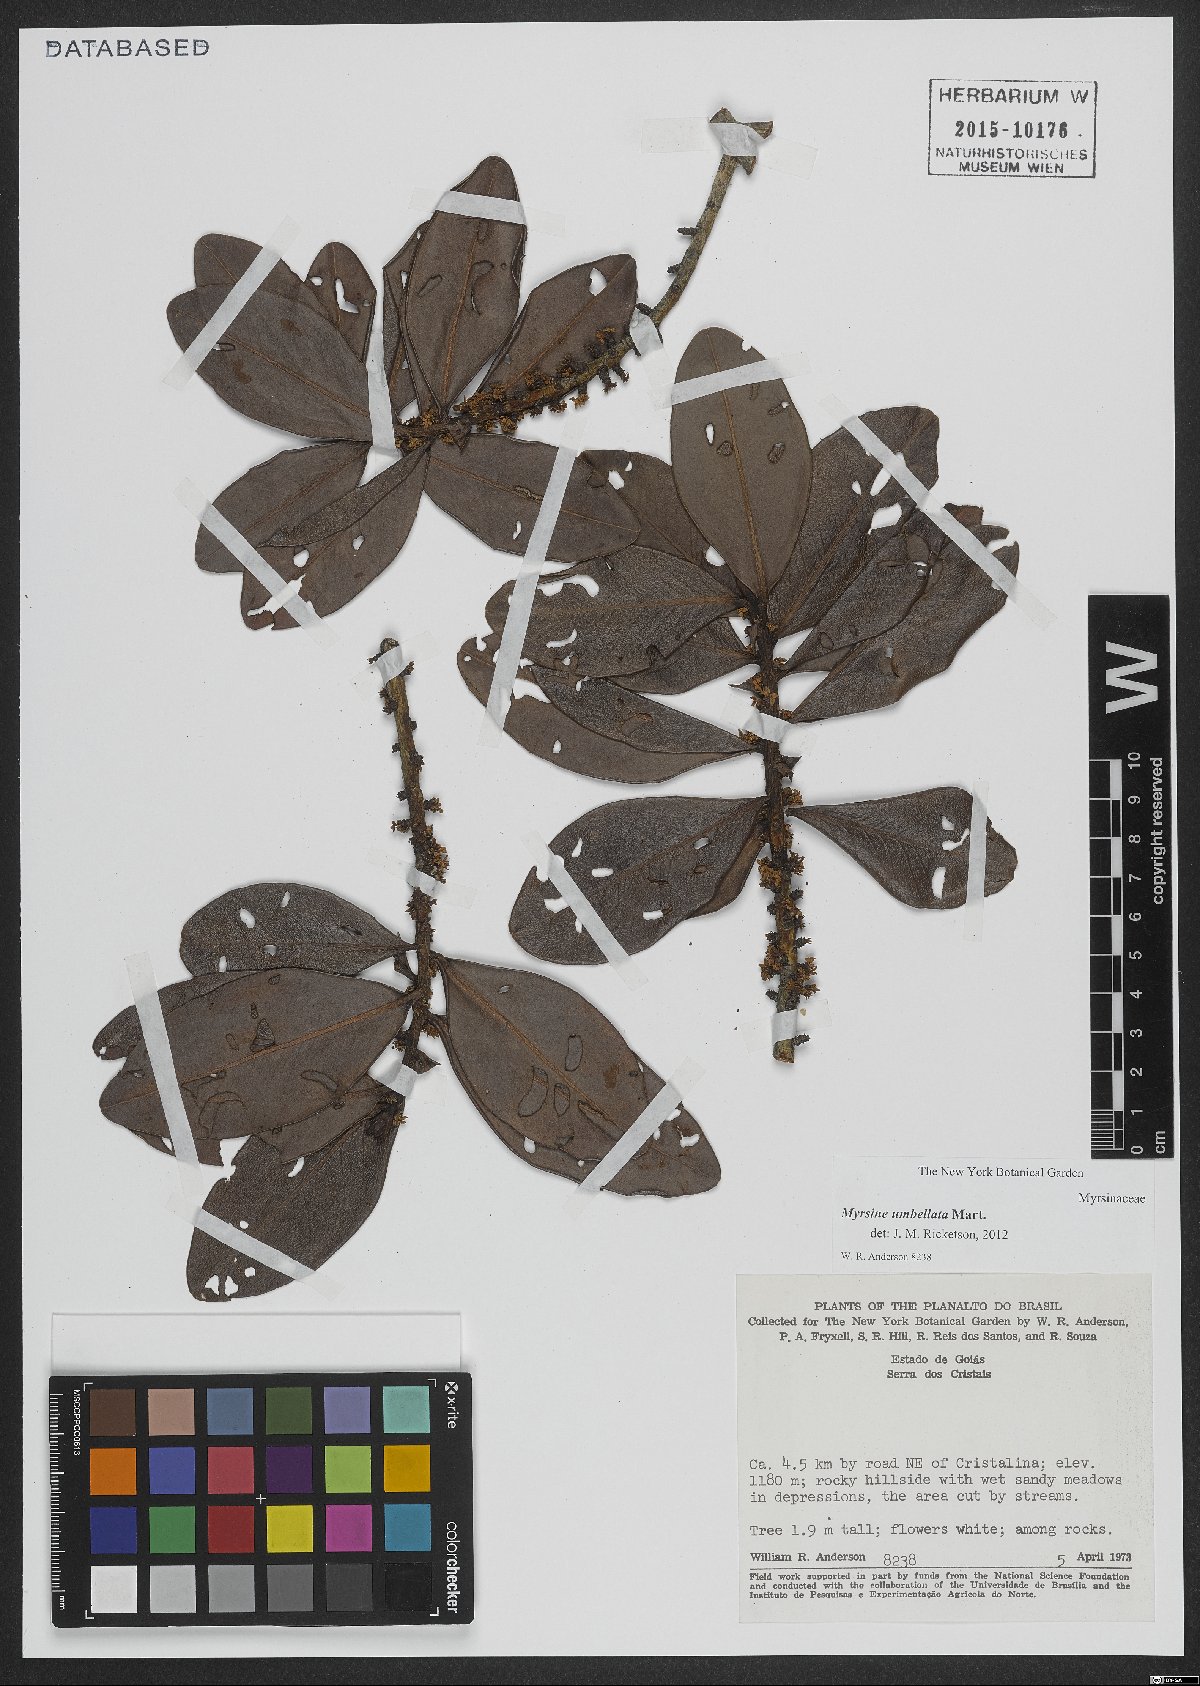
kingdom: Plantae
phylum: Tracheophyta
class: Magnoliopsida
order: Ericales
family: Primulaceae
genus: Myrsine
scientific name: Myrsine umbellata
